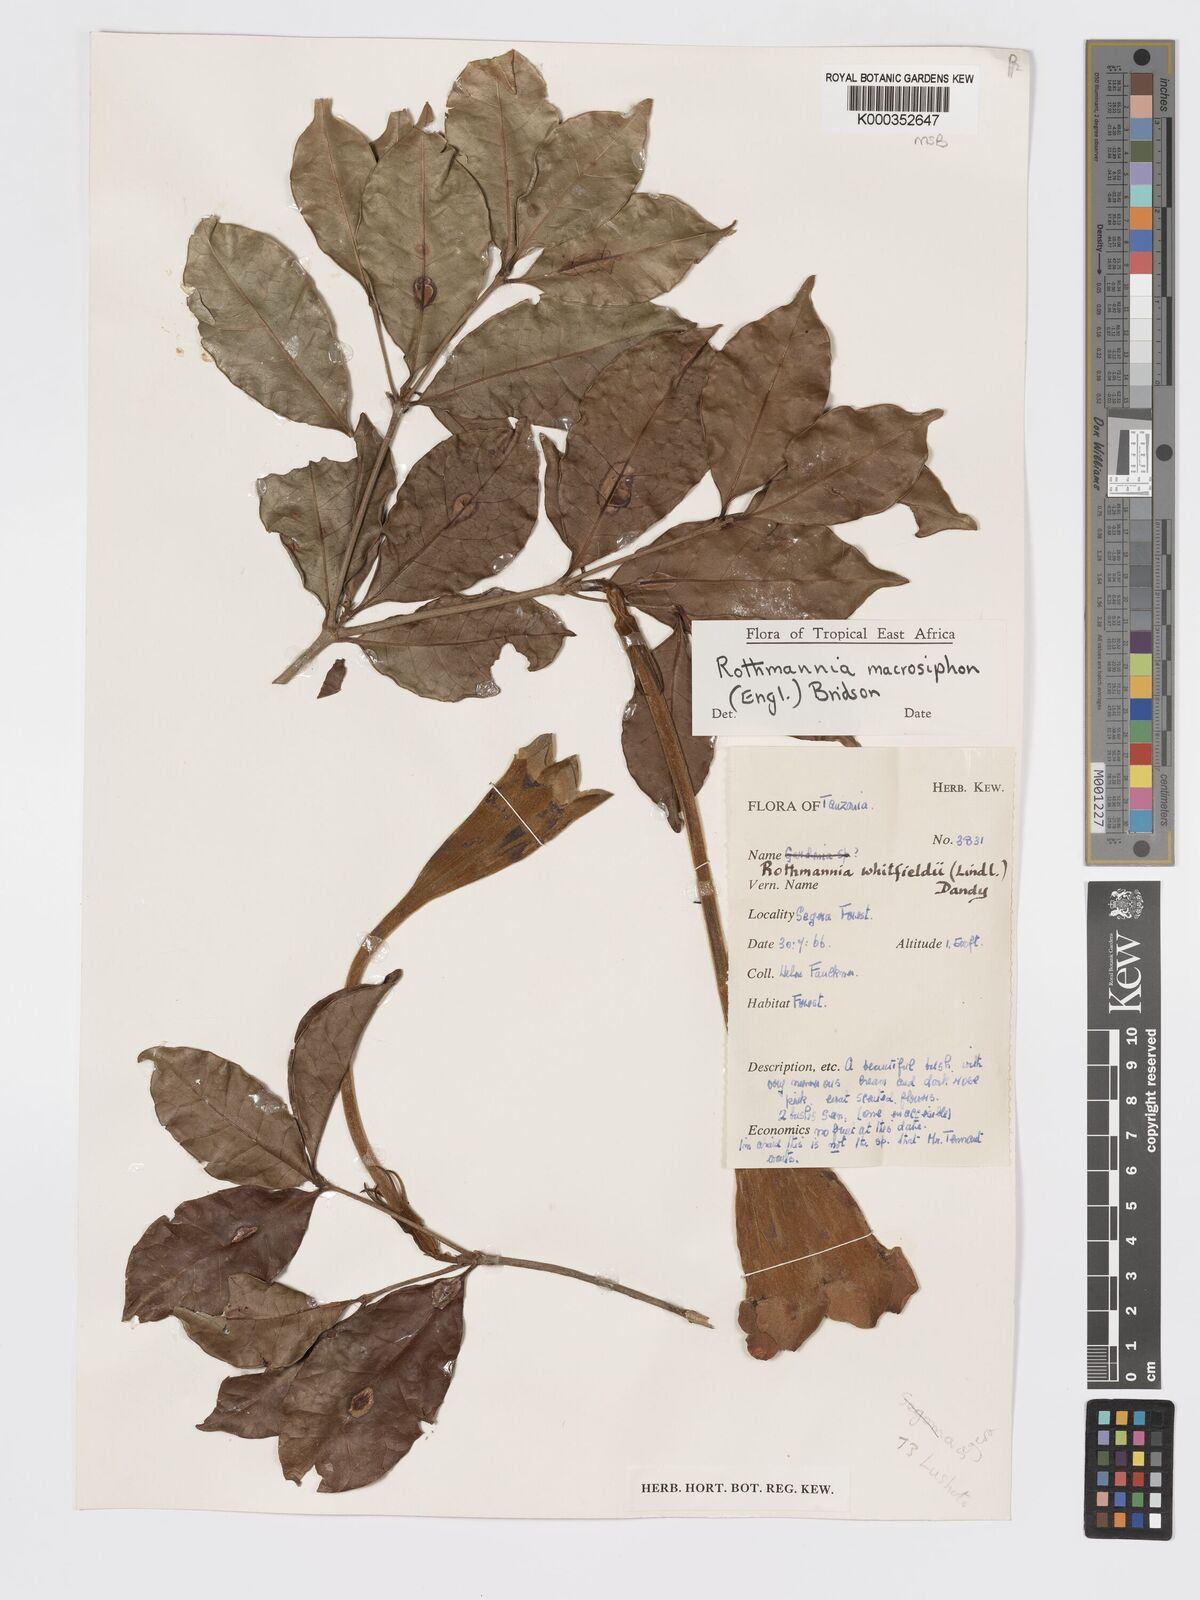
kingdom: Plantae
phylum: Tracheophyta
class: Magnoliopsida
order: Gentianales
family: Rubiaceae
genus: Rothmannia
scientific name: Rothmannia macrosiphon
